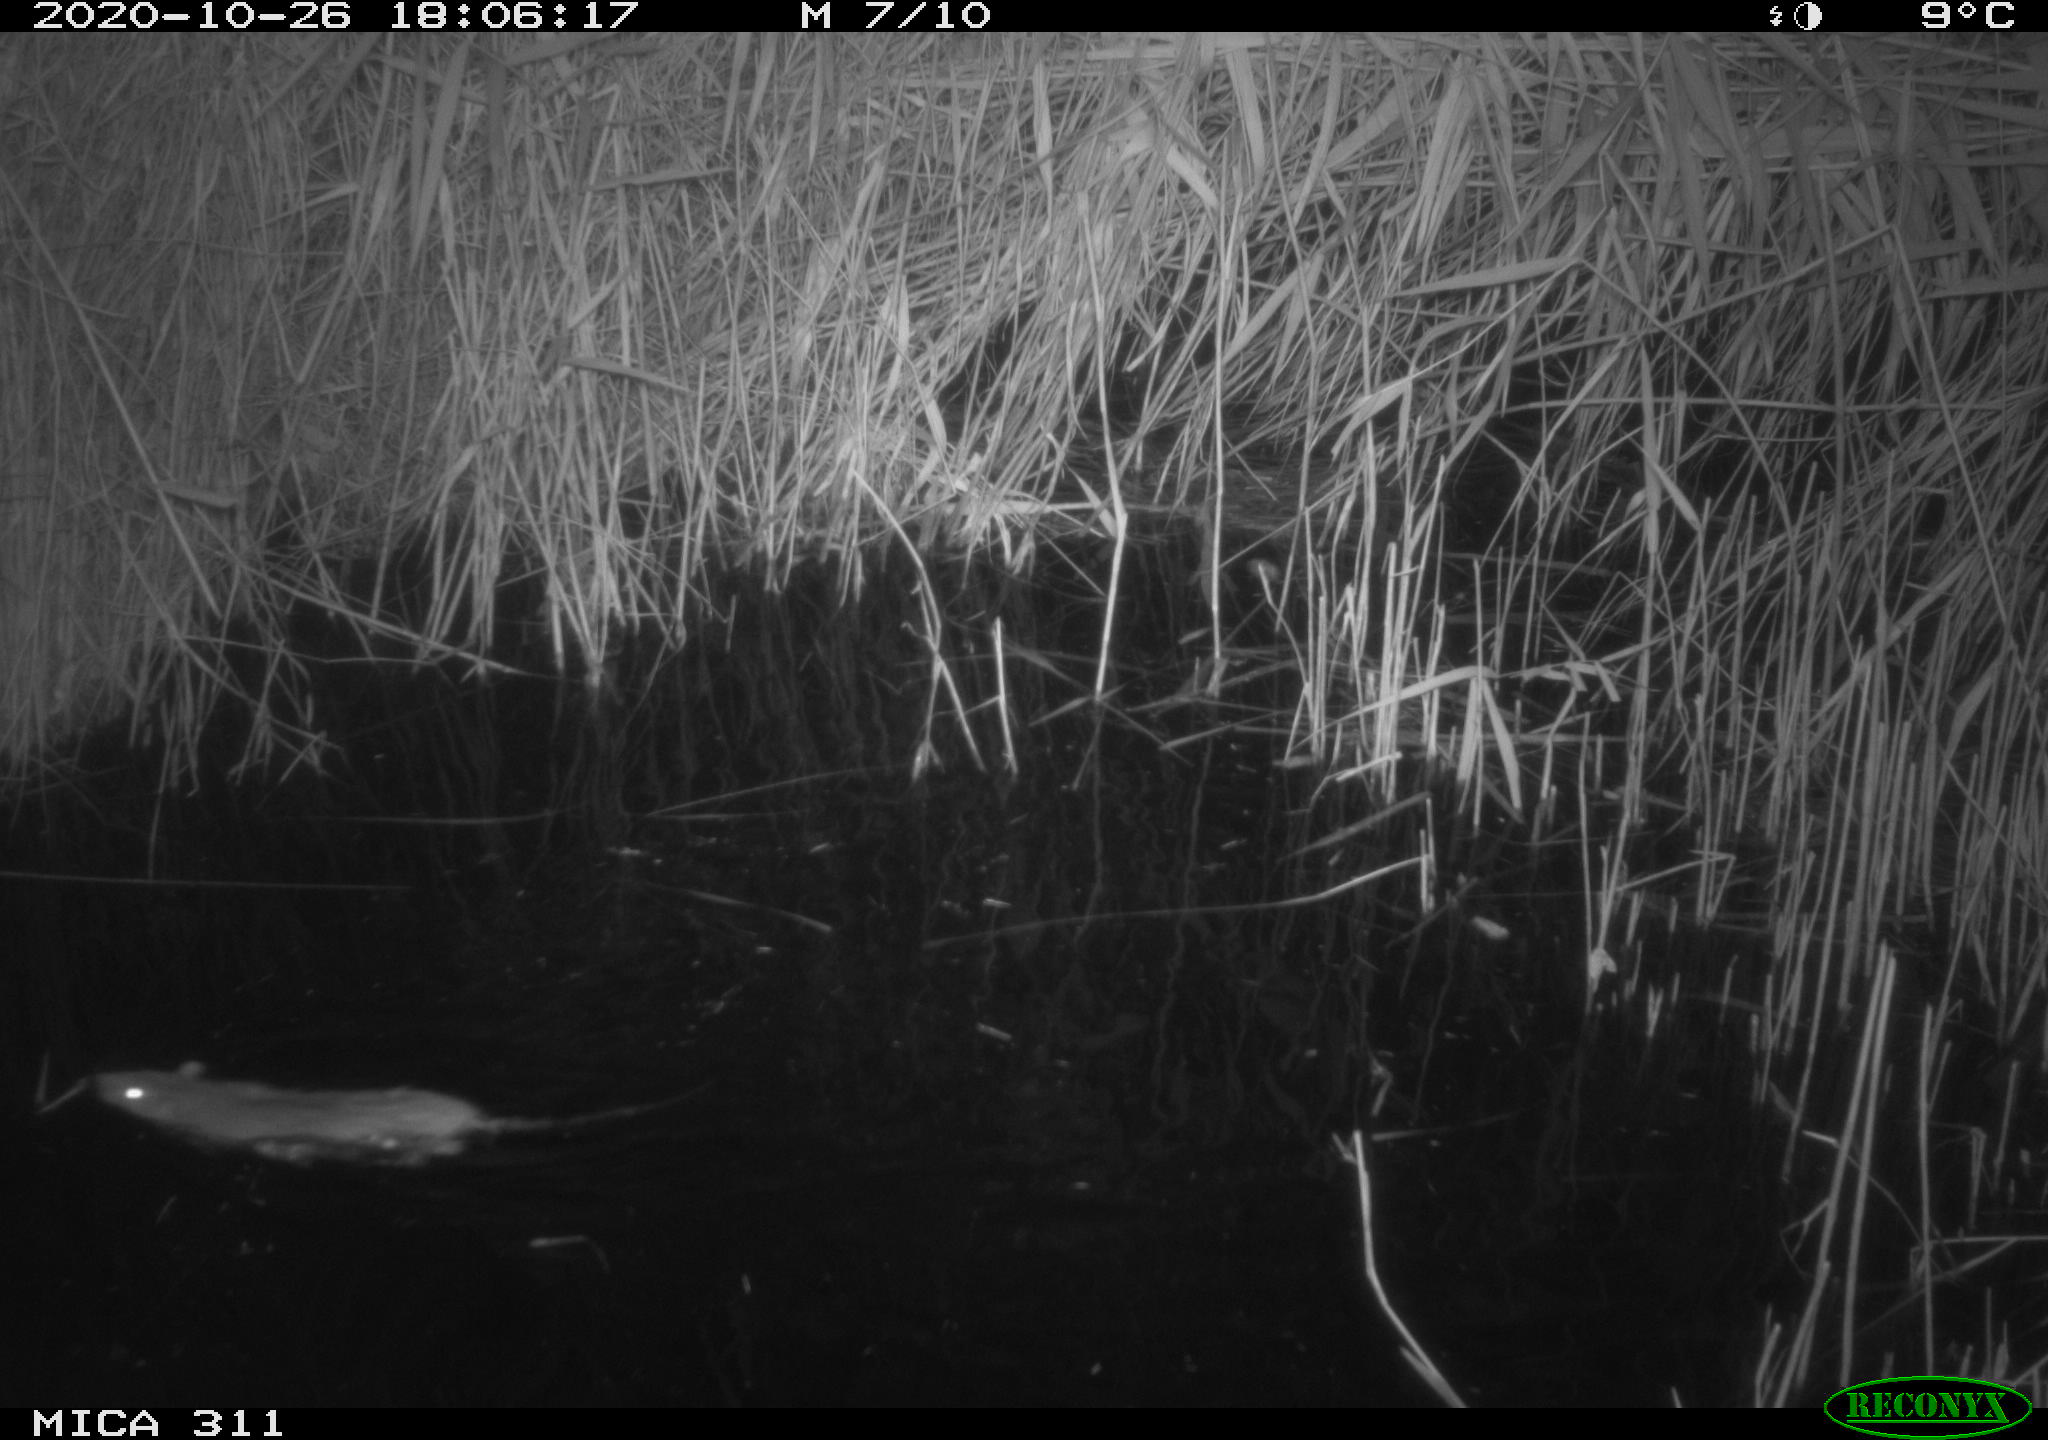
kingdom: Animalia
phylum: Chordata
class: Mammalia
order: Rodentia
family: Muridae
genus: Rattus
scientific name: Rattus norvegicus
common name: Brown rat
